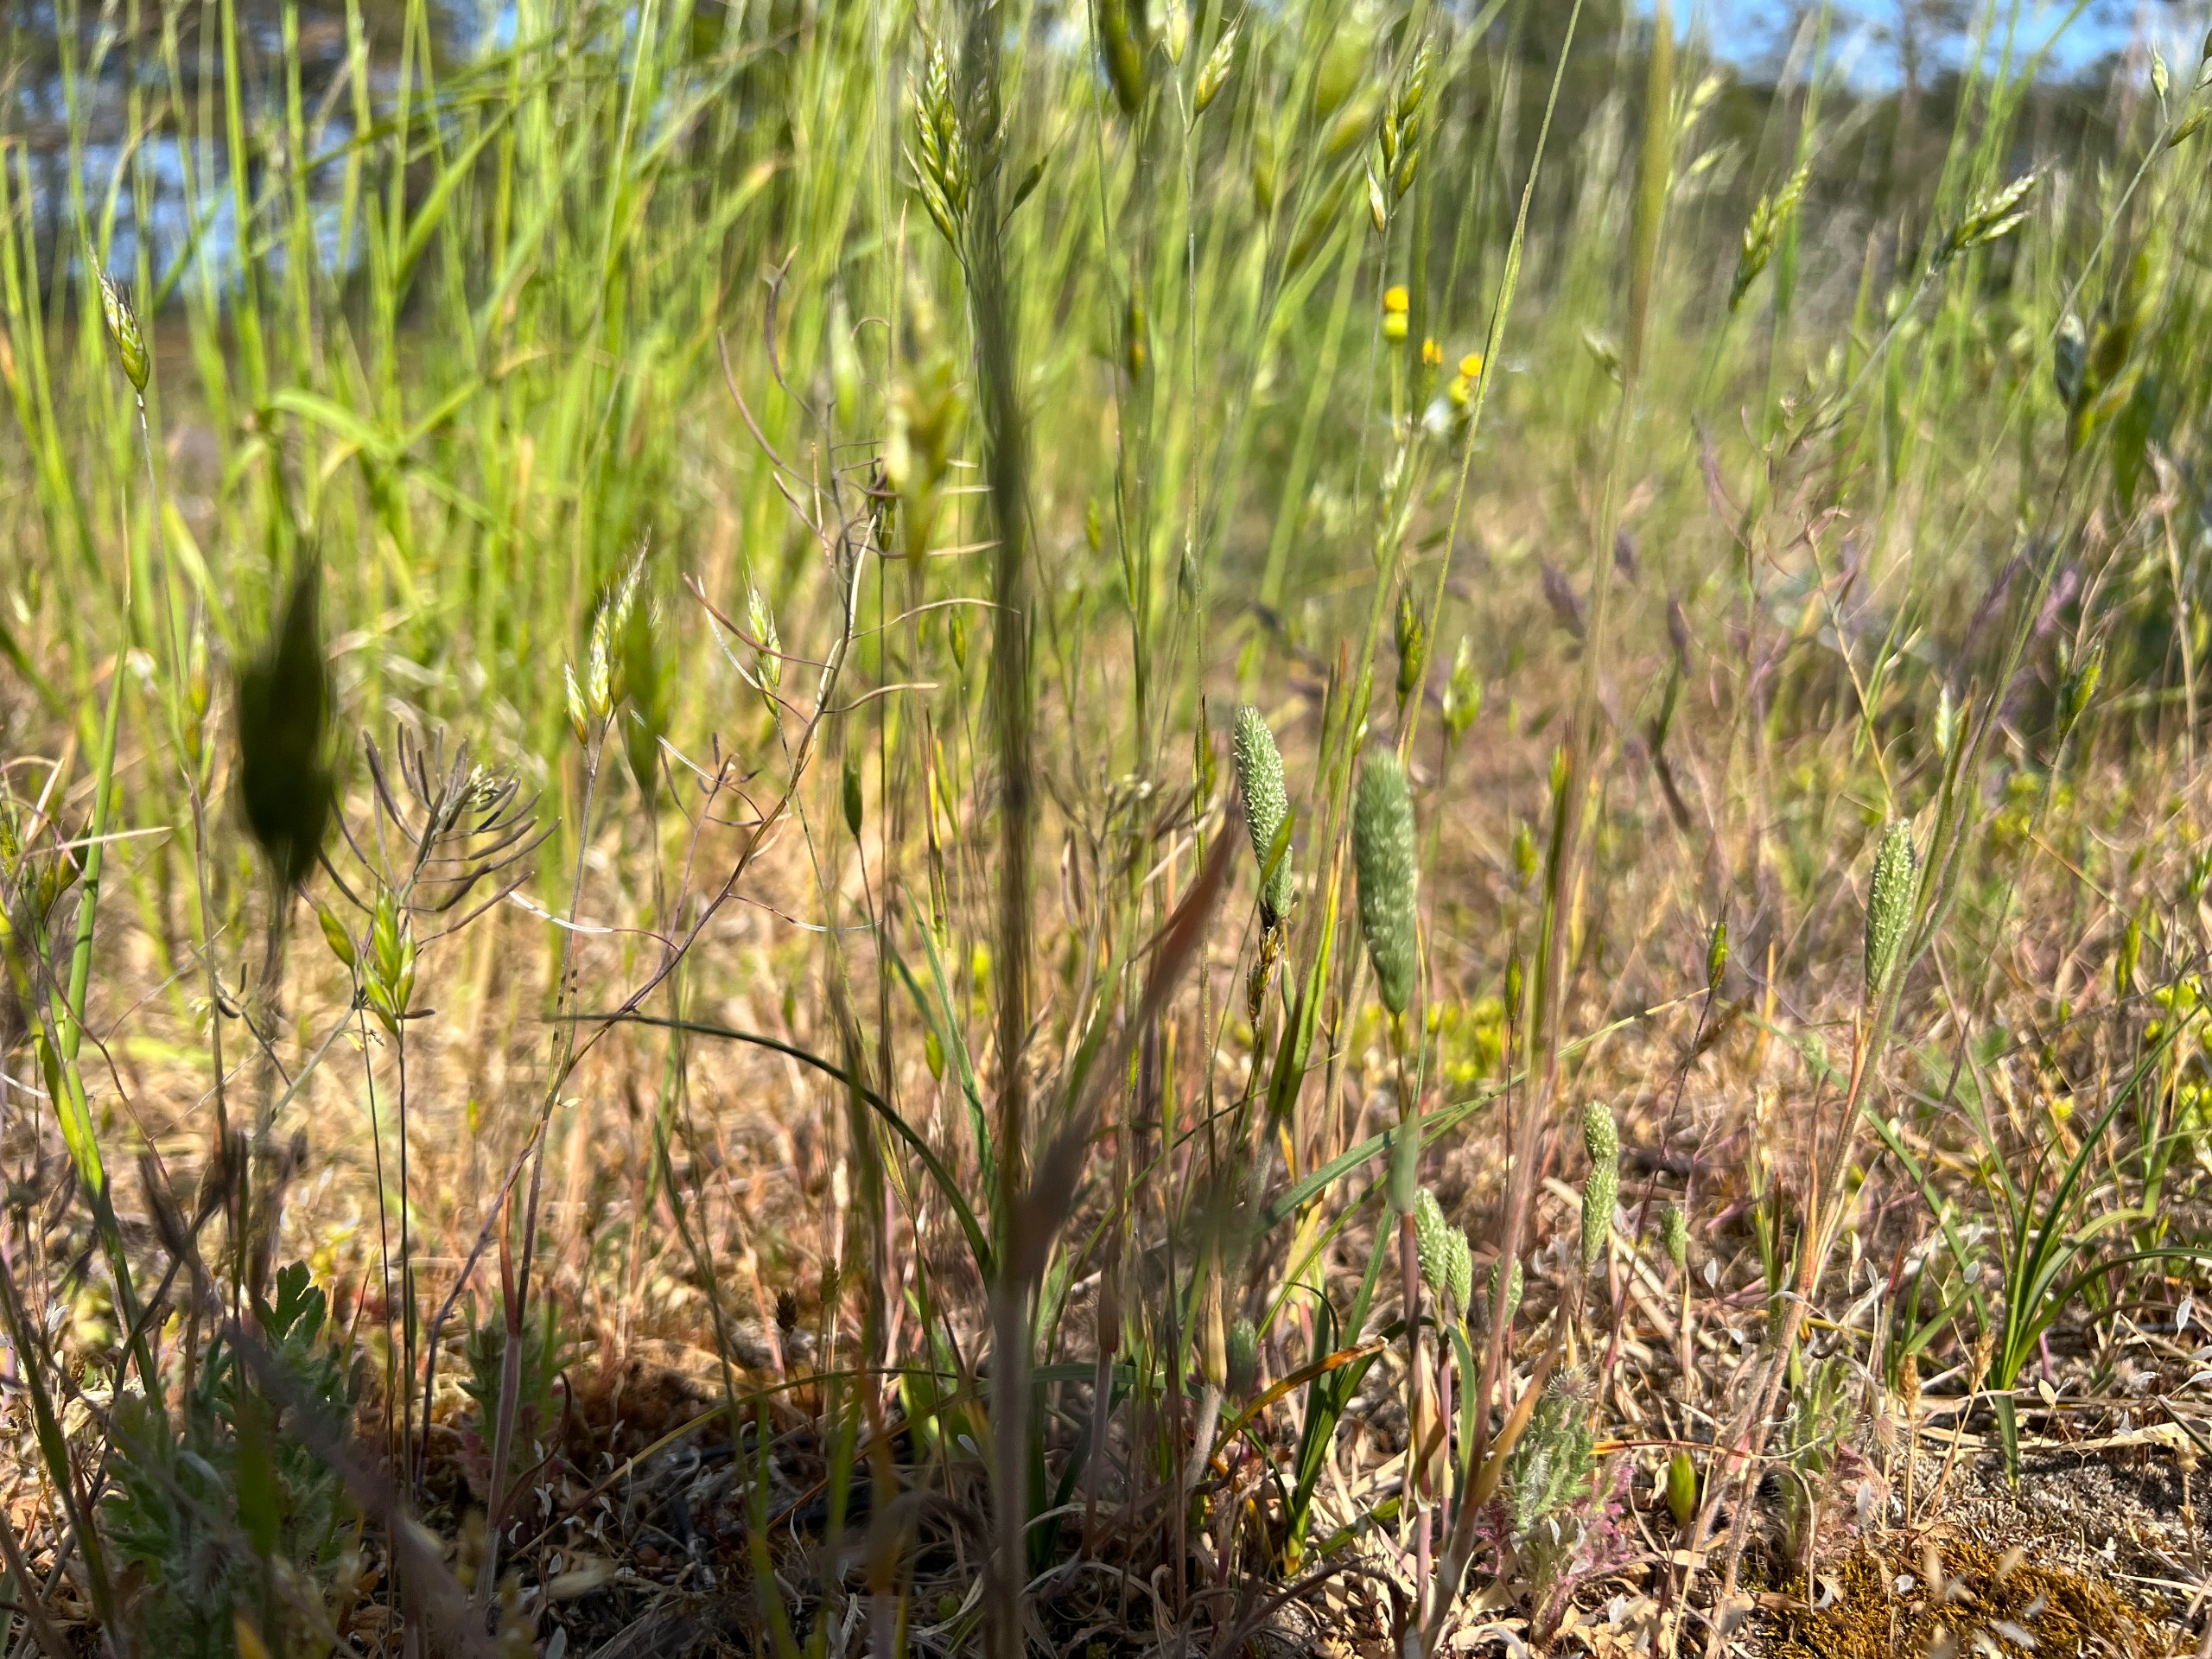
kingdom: Plantae
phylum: Tracheophyta
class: Liliopsida
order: Poales
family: Poaceae
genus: Phleum
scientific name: Phleum arenarium
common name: Sand-rottehale
